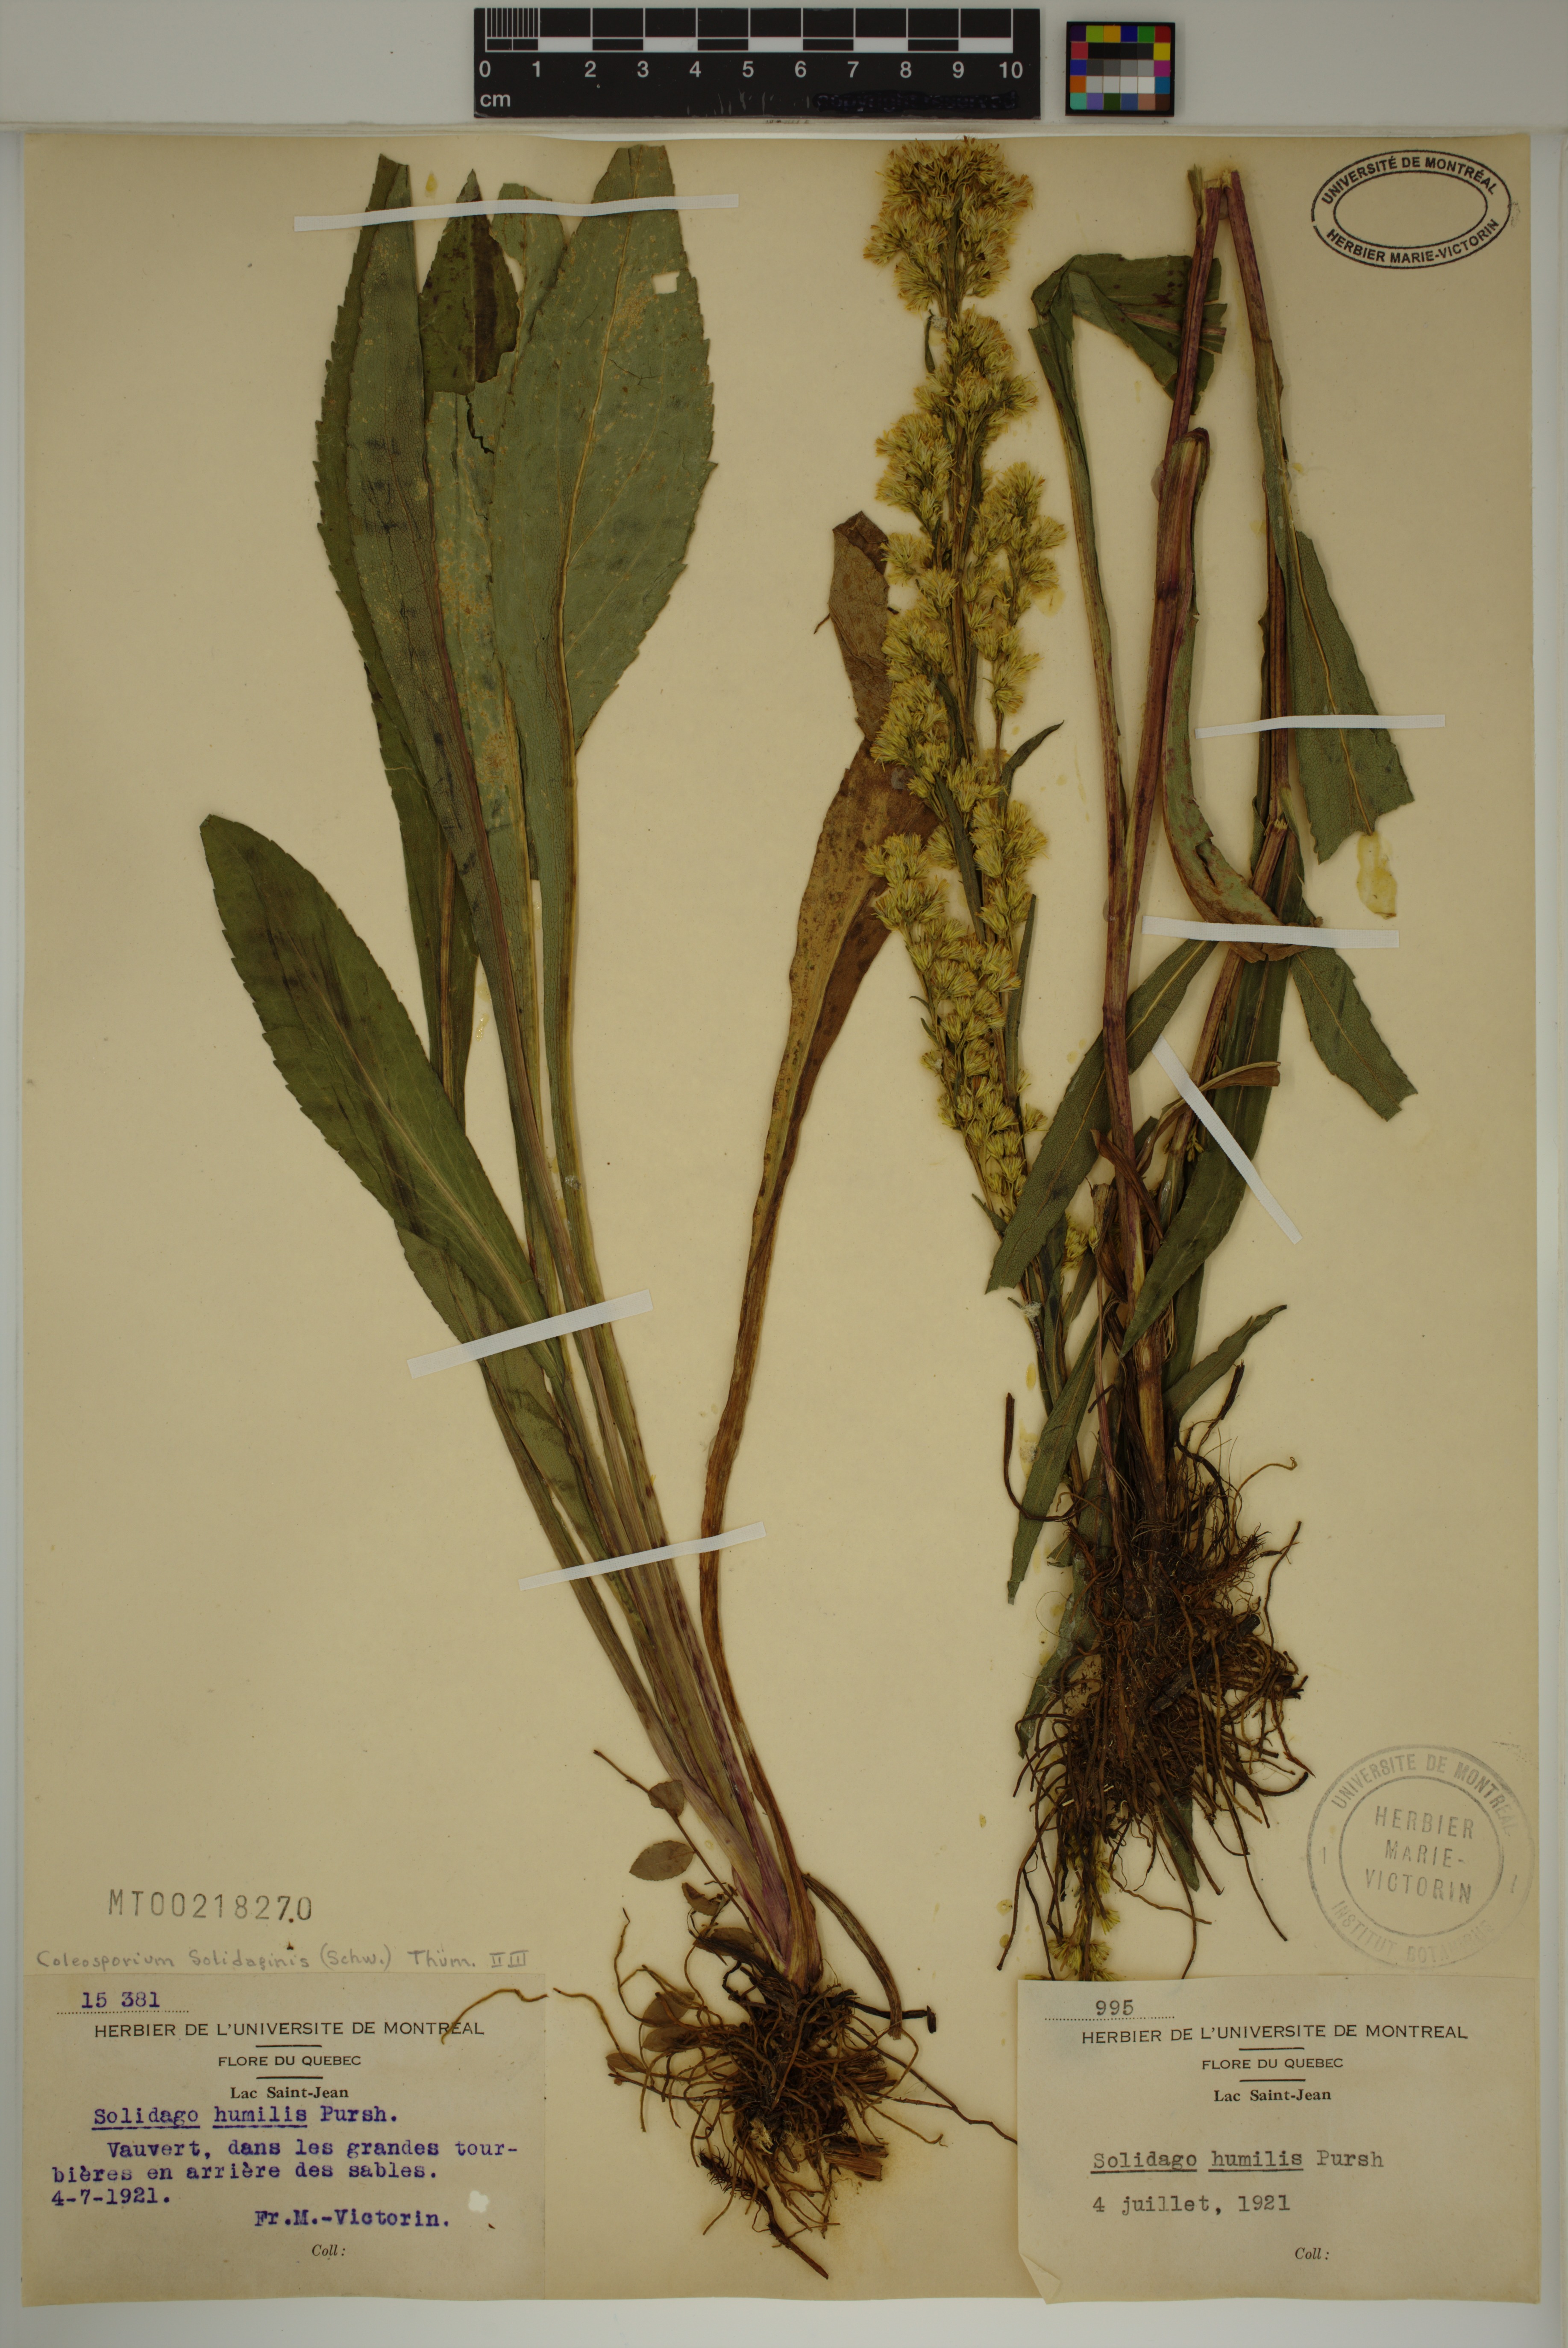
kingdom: Plantae
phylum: Tracheophyta
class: Magnoliopsida
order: Asterales
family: Asteraceae
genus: Solidago
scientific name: Solidago uliginosa
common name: Bog goldenrod
